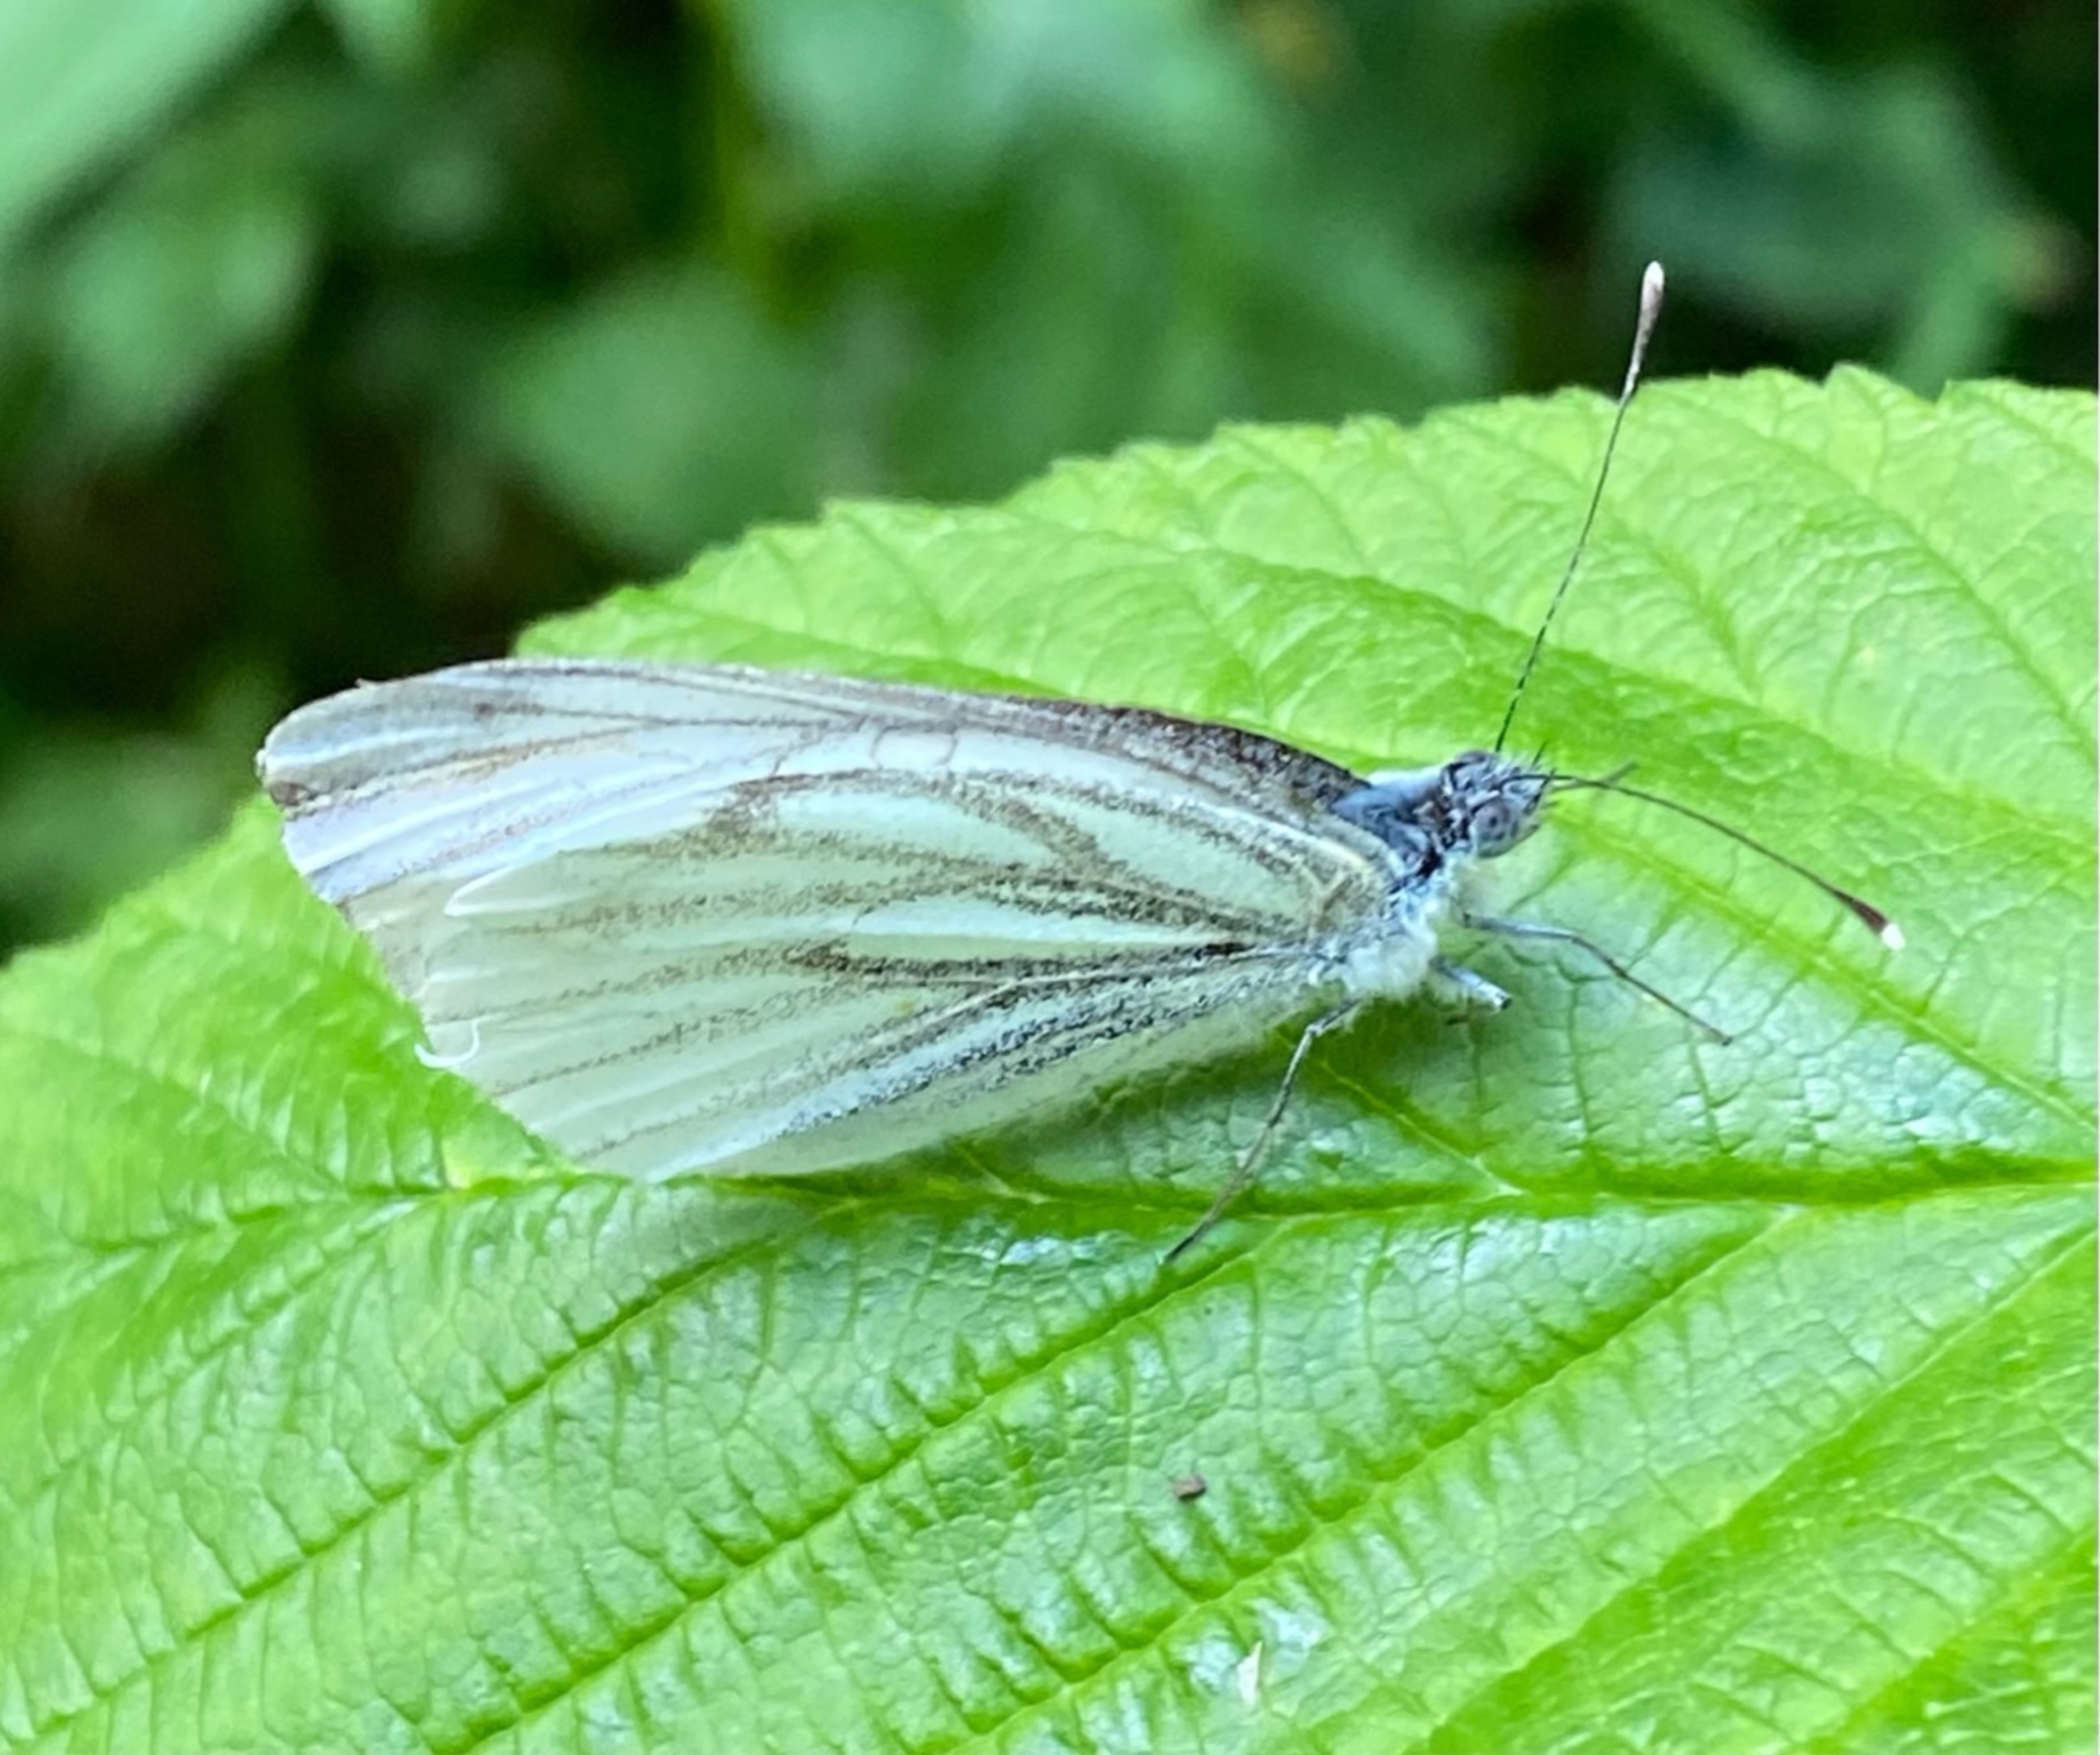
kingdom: Animalia
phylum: Arthropoda
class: Insecta
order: Lepidoptera
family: Pieridae
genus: Pieris
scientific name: Pieris napi
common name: Grønåret kålsommerfugl
